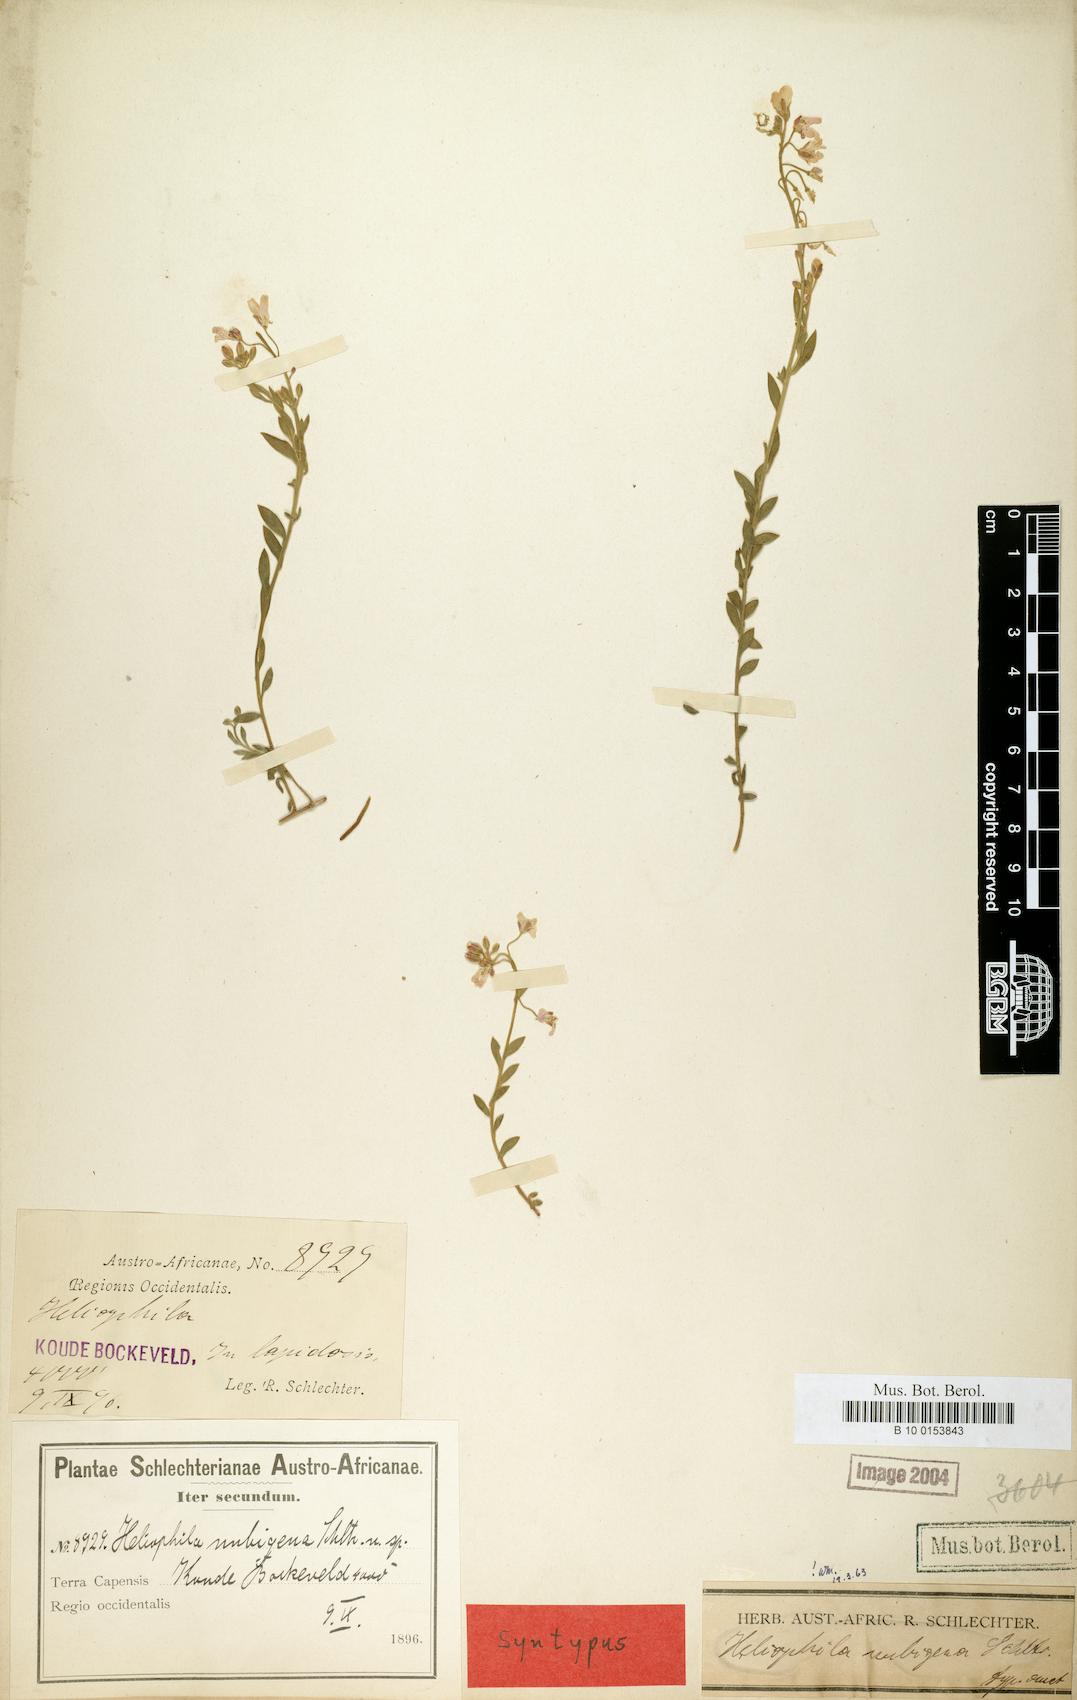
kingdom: Plantae
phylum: Tracheophyta
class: Magnoliopsida
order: Brassicales
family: Brassicaceae
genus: Heliophila
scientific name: Heliophila nubigena
